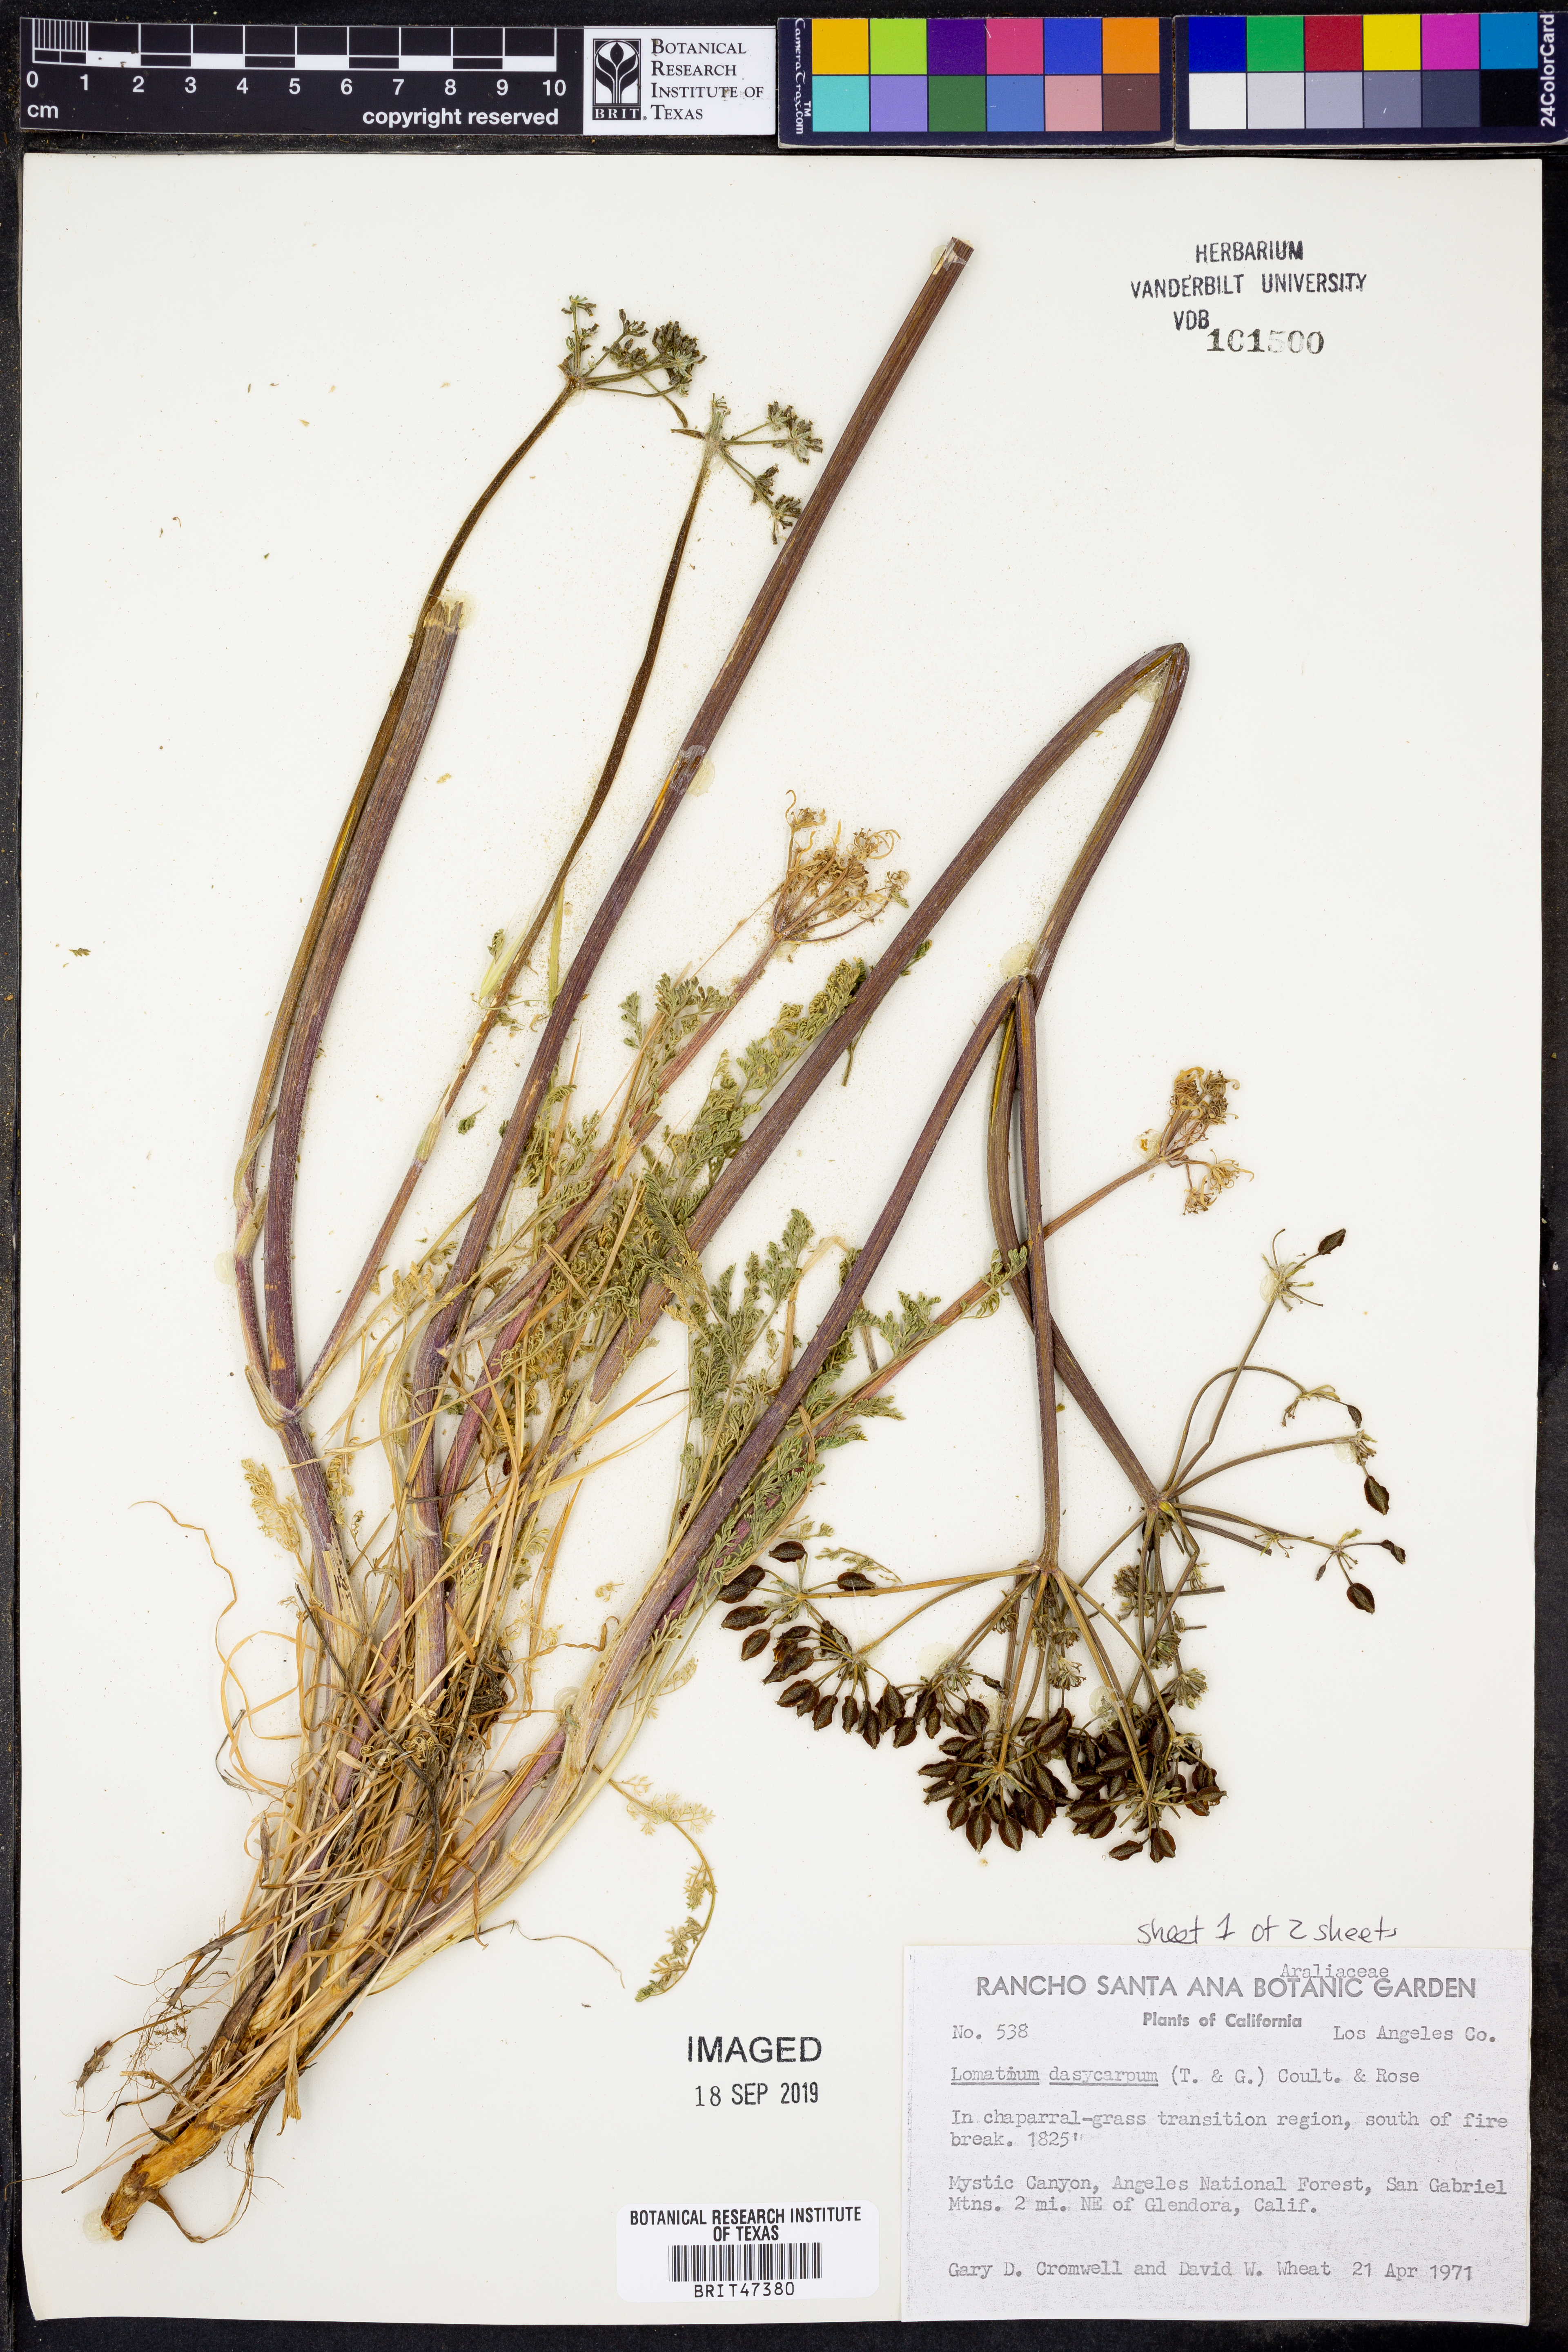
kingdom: Plantae
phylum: Tracheophyta
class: Magnoliopsida
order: Apiales
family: Apiaceae
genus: Lomatium
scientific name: Lomatium dasycarpum
